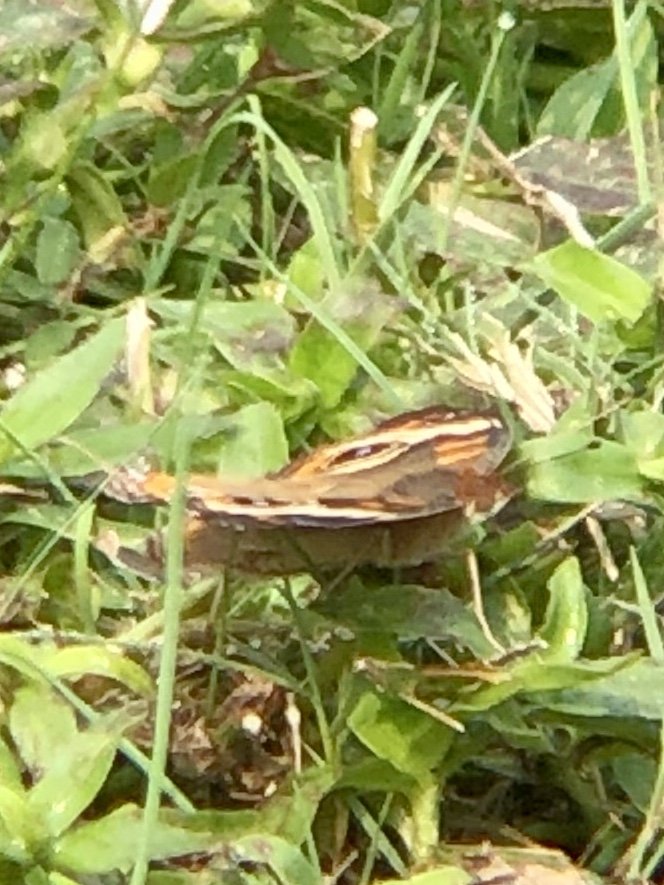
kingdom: Animalia
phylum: Arthropoda
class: Insecta
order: Lepidoptera
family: Nymphalidae
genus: Junonia
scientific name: Junonia coenia
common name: Common Buckeye
